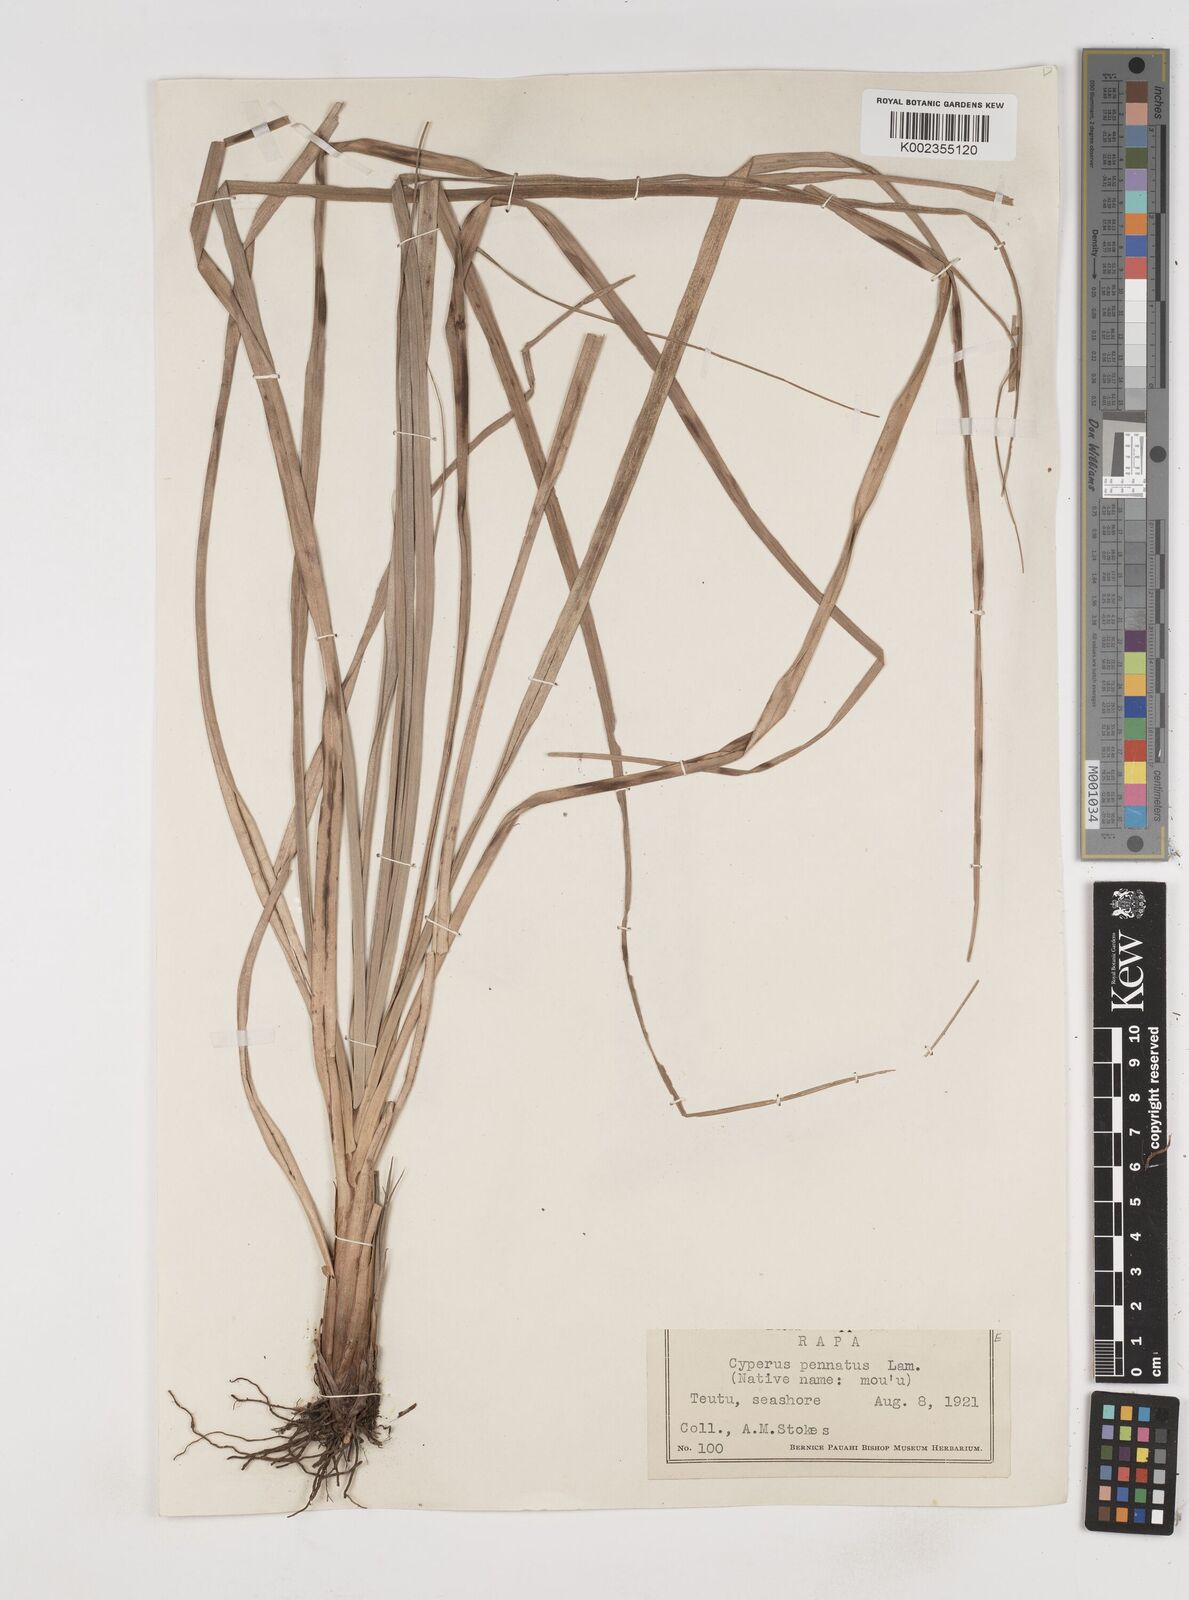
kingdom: Plantae
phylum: Tracheophyta
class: Liliopsida
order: Poales
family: Cyperaceae
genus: Cyperus
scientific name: Cyperus javanicus
